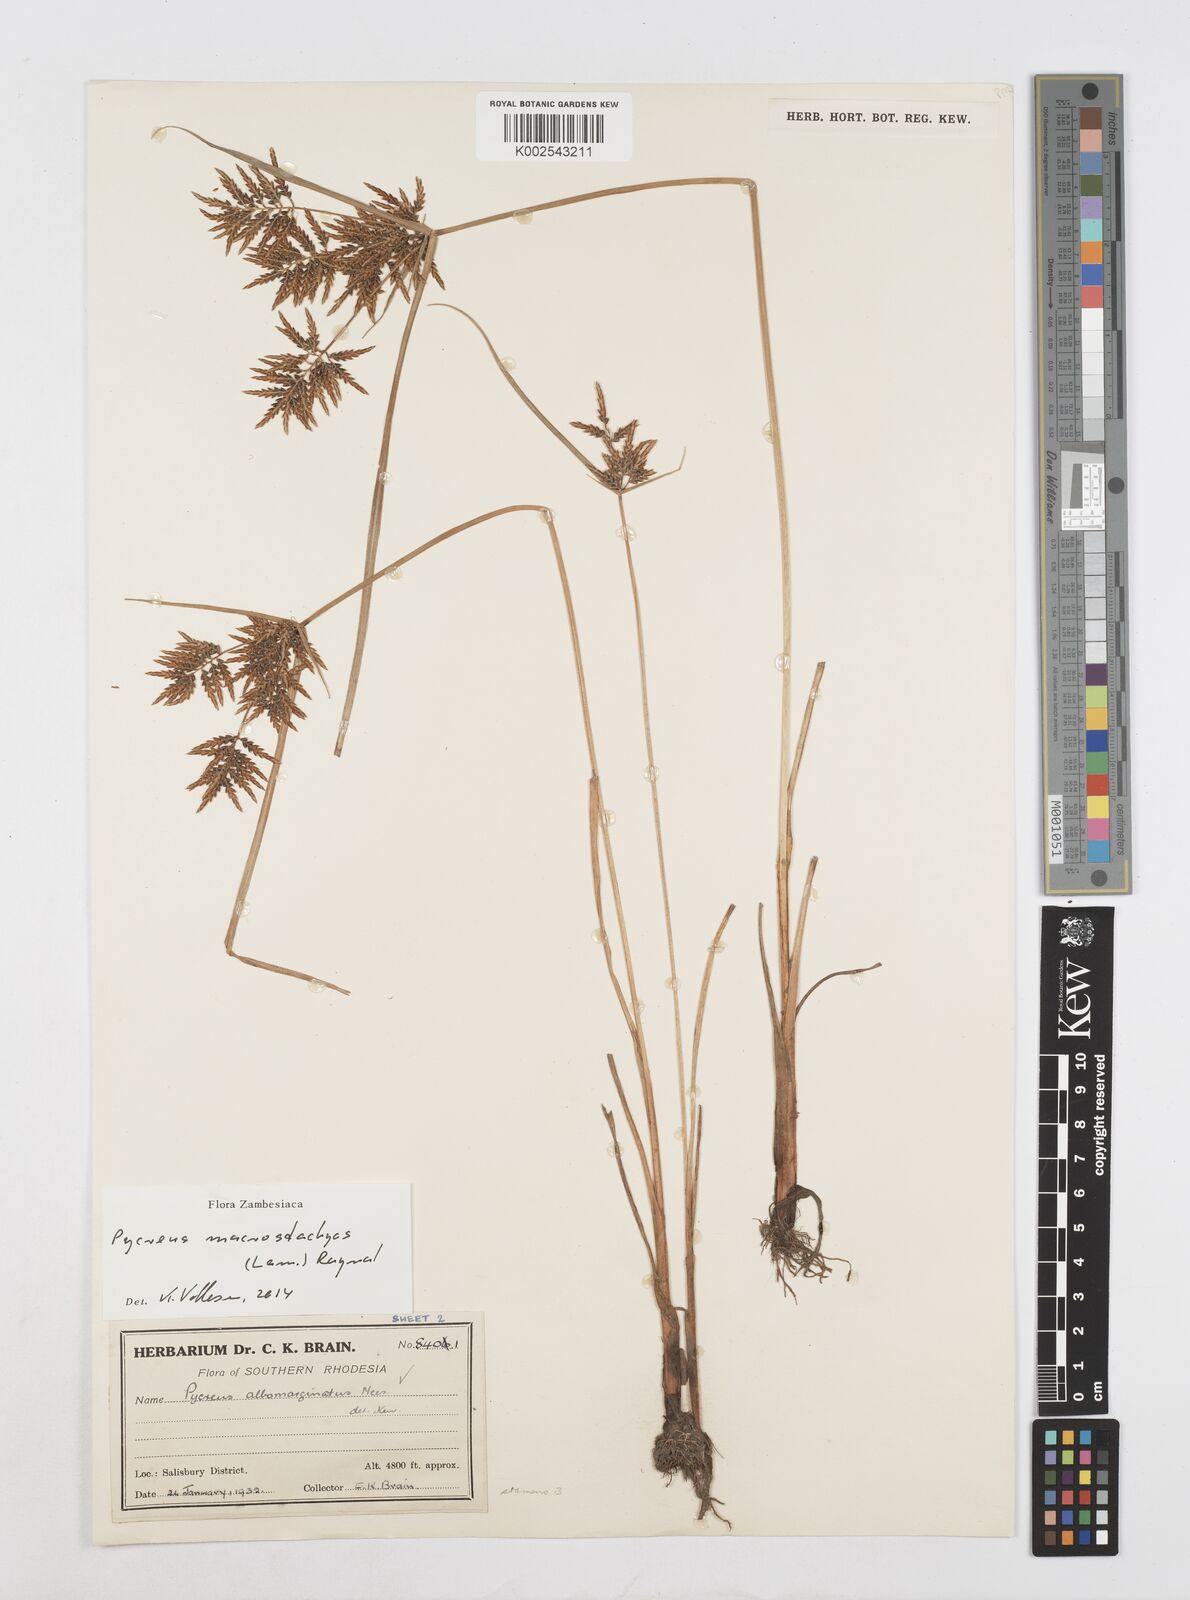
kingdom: Plantae
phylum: Tracheophyta
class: Liliopsida
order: Poales
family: Cyperaceae
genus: Cyperus
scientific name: Cyperus macrostachyos
